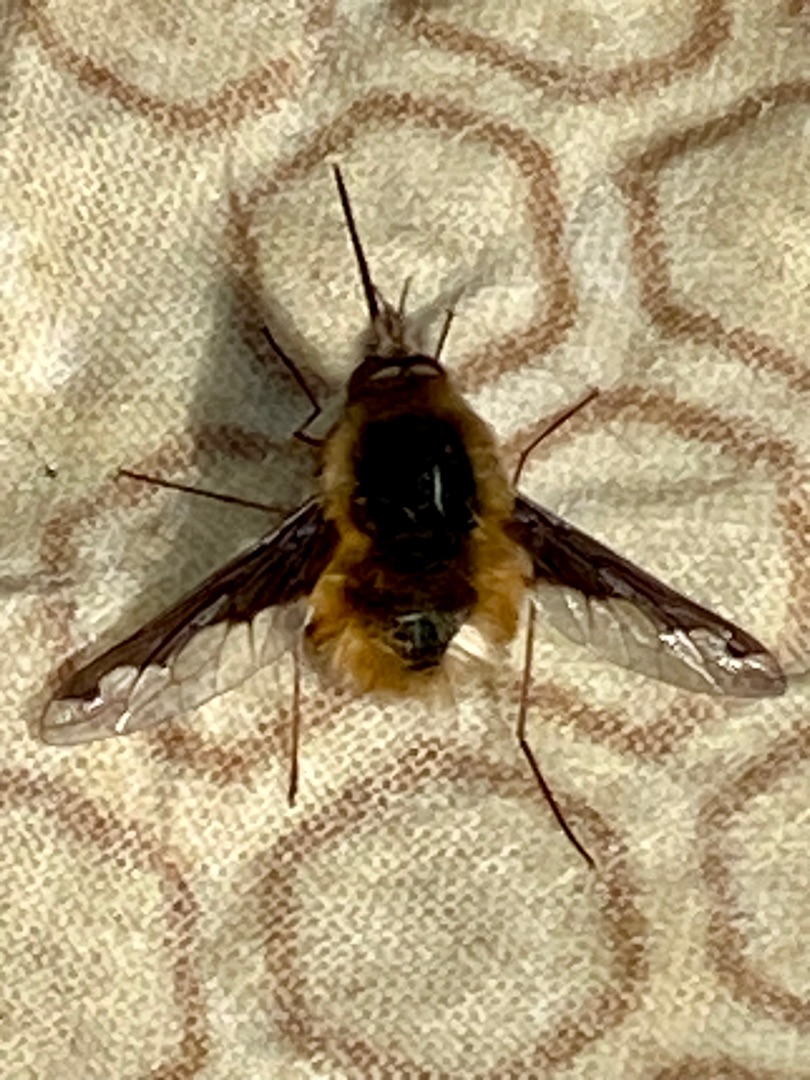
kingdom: Animalia
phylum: Arthropoda
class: Insecta
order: Diptera
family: Bombyliidae
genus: Bombylius
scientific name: Bombylius major
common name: Stor humleflue
